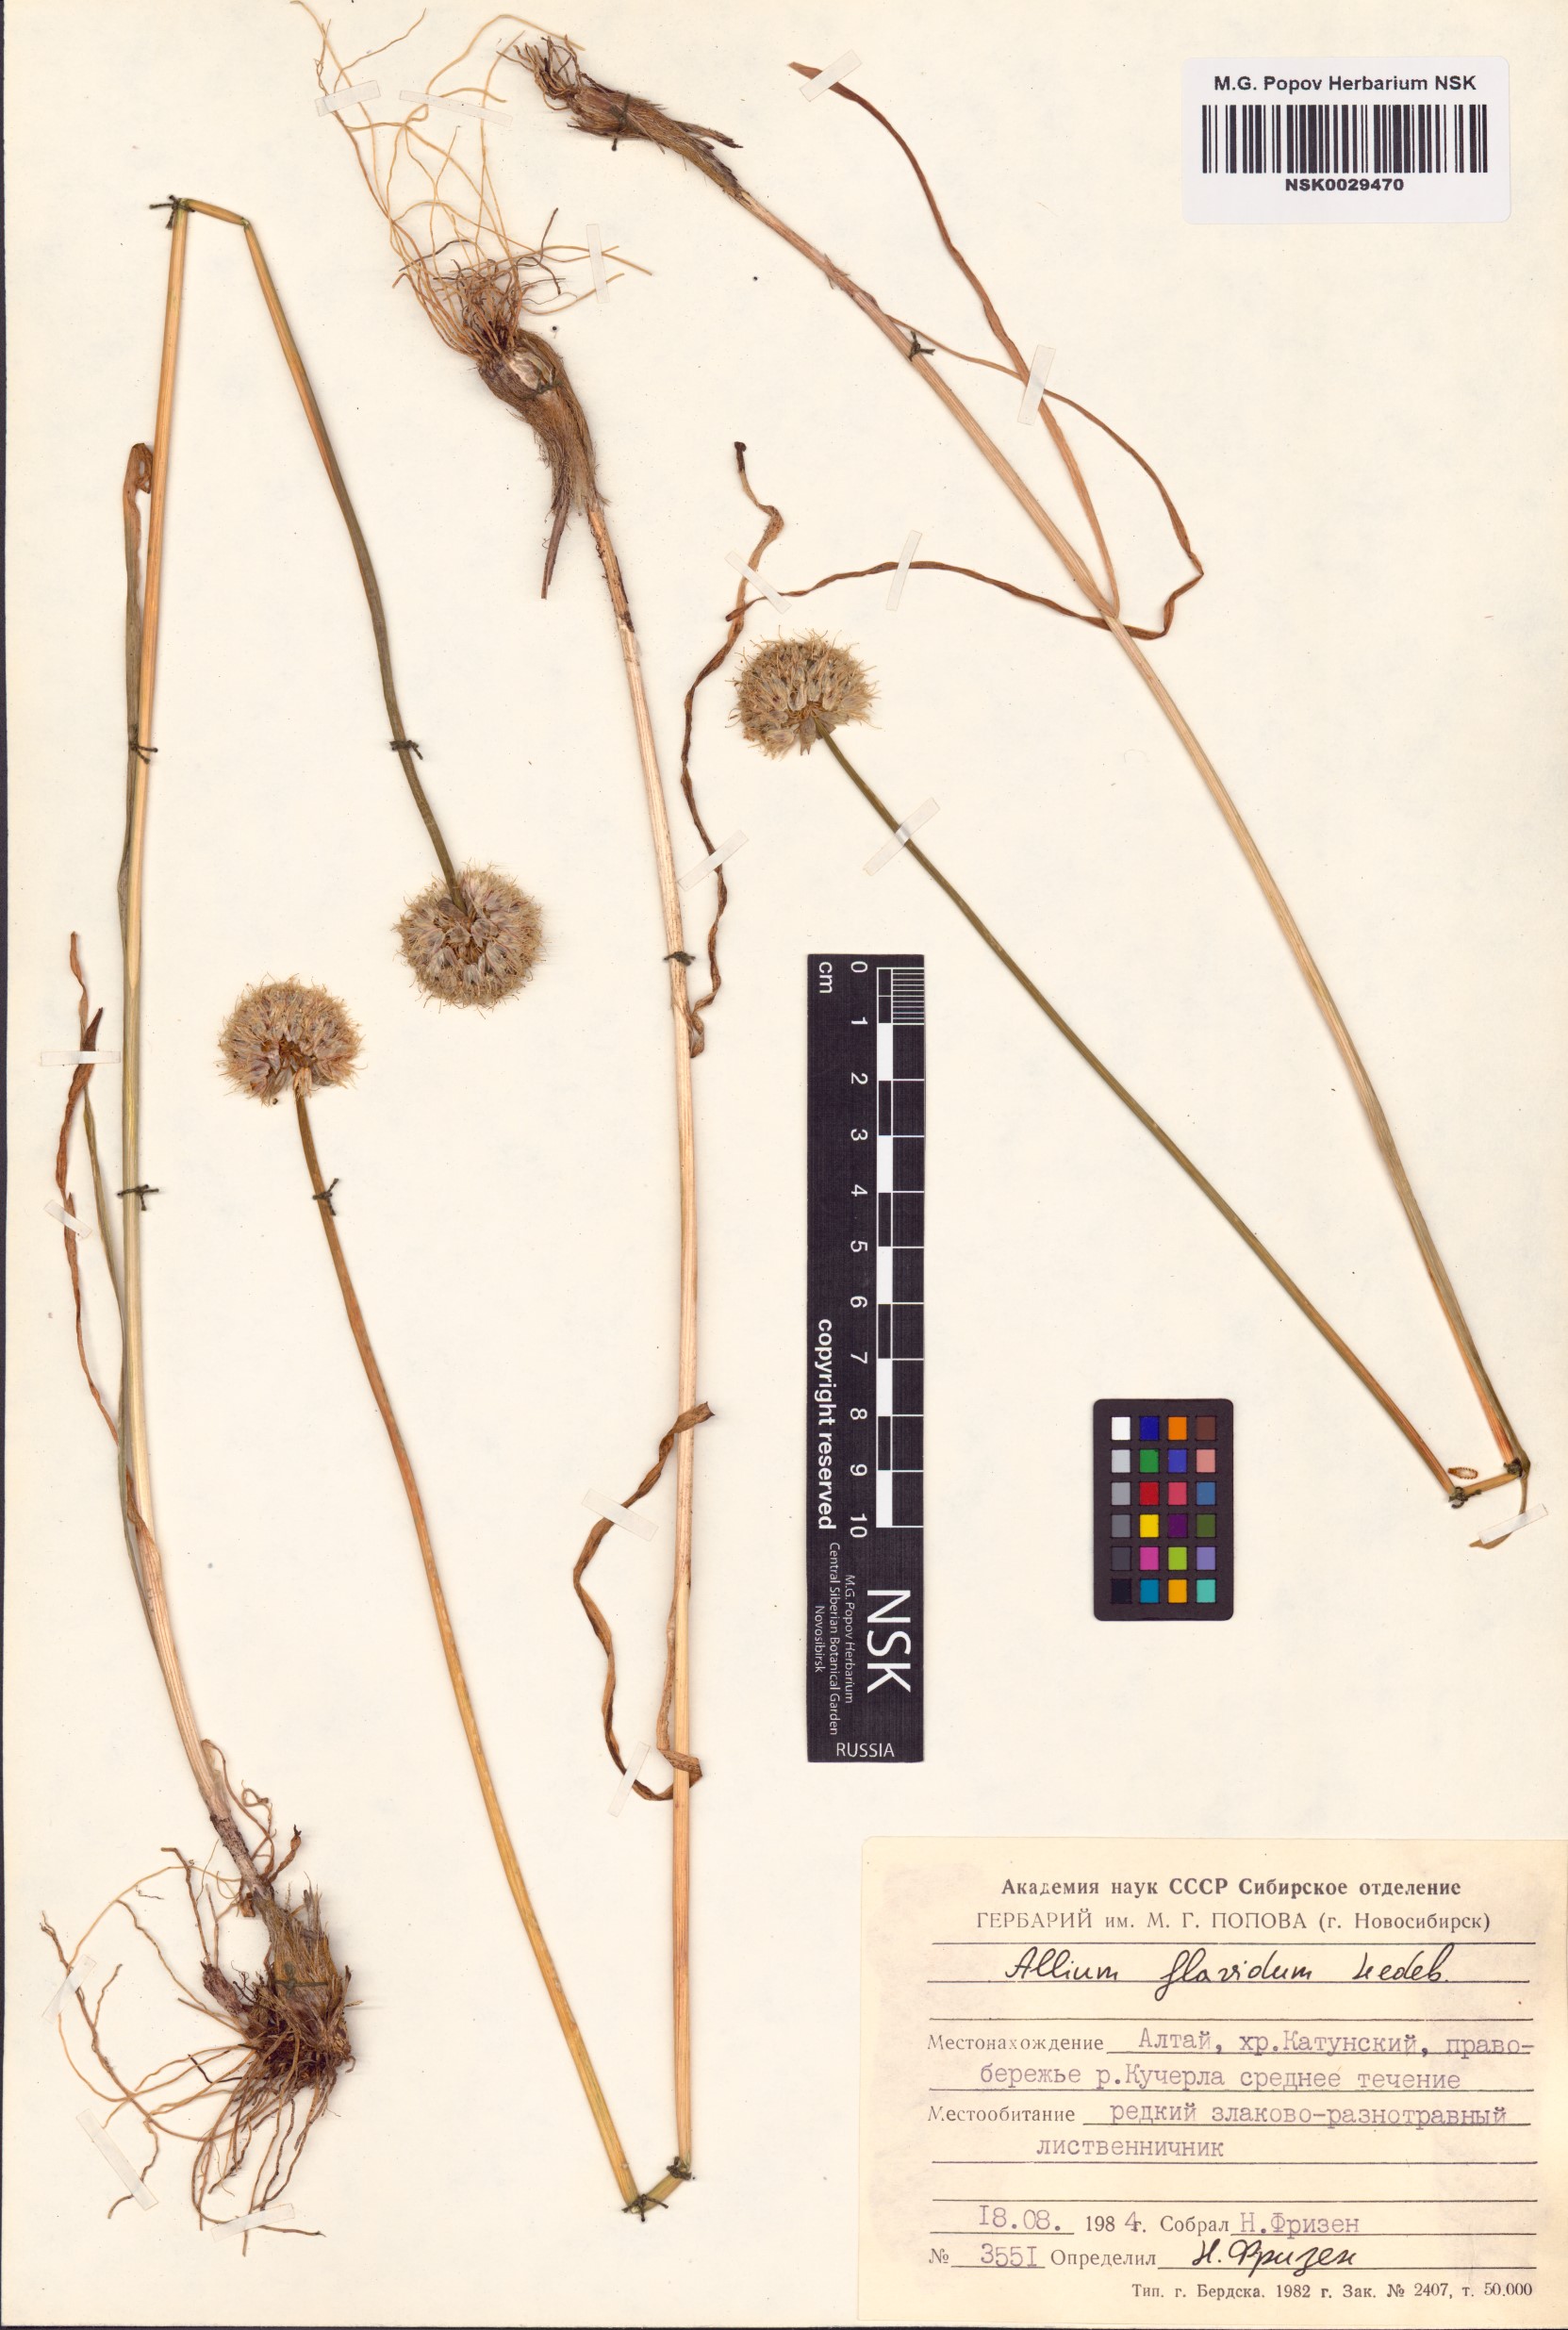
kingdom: Plantae
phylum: Tracheophyta
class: Liliopsida
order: Asparagales
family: Amaryllidaceae
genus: Allium
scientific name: Allium flavidum
